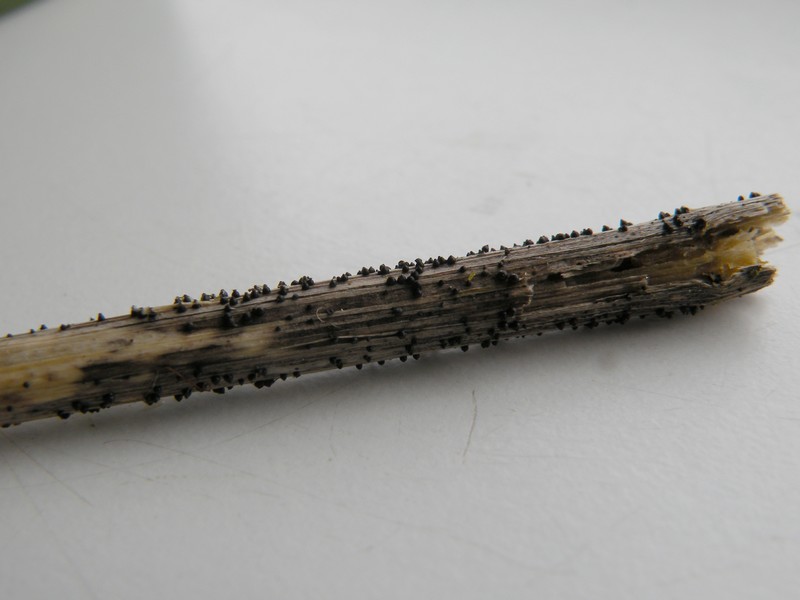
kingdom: Fungi
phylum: Ascomycota
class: Dothideomycetes
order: Pleosporales
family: Leptosphaeriaceae
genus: Leptosphaeria
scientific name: Leptosphaeria acuta
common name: spids kulkegle
